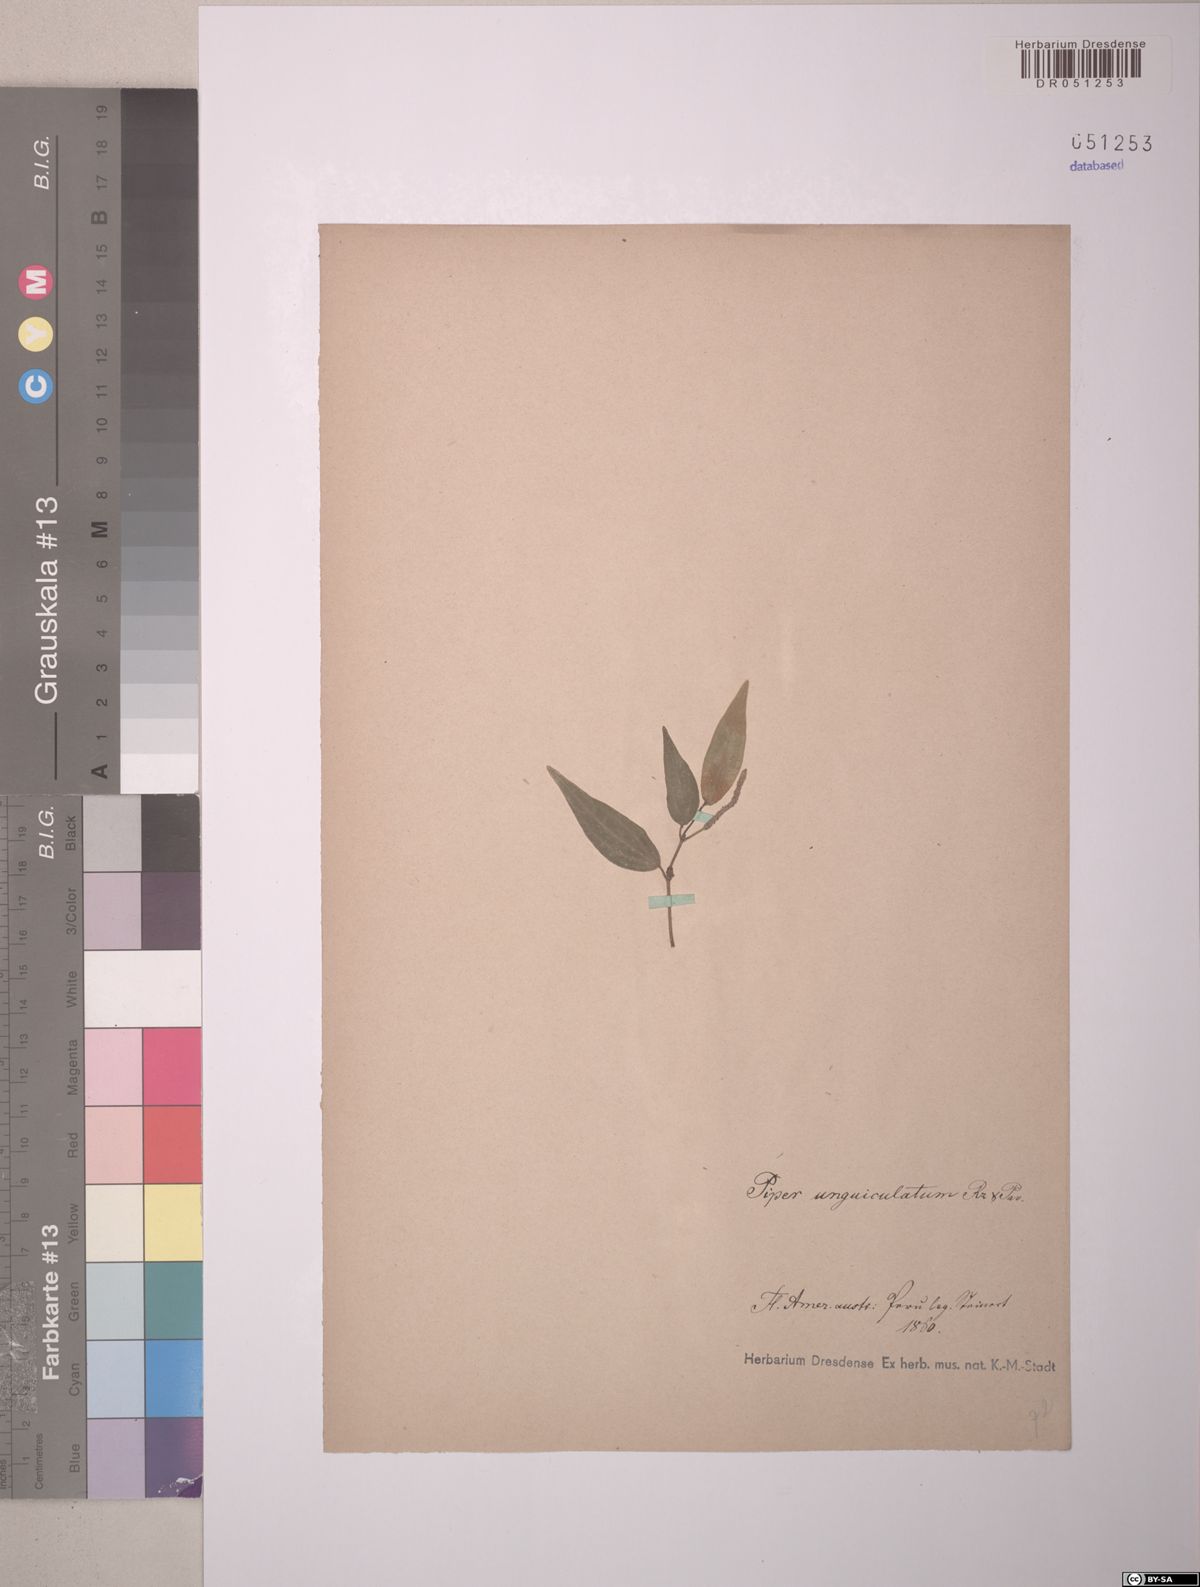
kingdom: Plantae
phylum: Tracheophyta
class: Magnoliopsida
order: Piperales
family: Piperaceae
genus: Piper
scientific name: Piper unguiculatum
